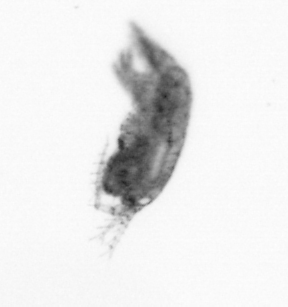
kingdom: Animalia
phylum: Arthropoda
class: Copepoda
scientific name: Copepoda
